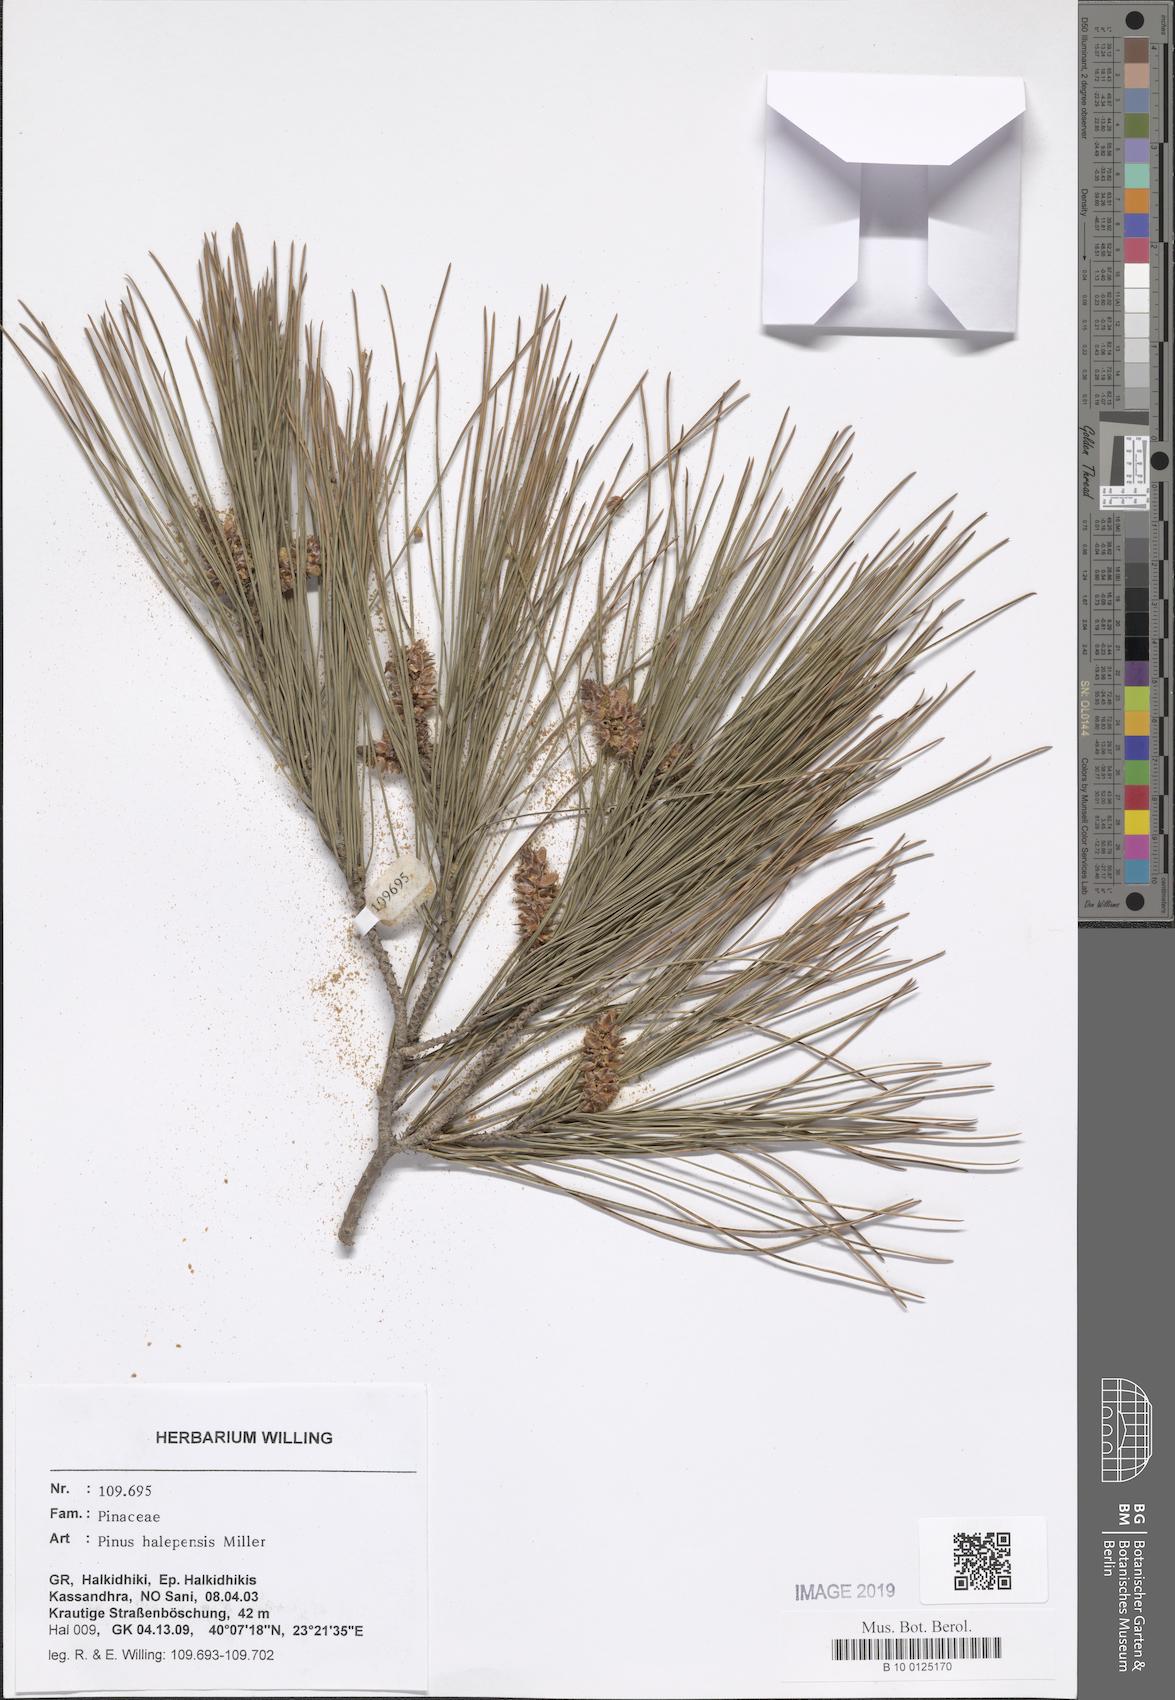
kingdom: Plantae
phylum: Tracheophyta
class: Pinopsida
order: Pinales
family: Pinaceae
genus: Pinus
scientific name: Pinus halepensis
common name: Aleppo pine
